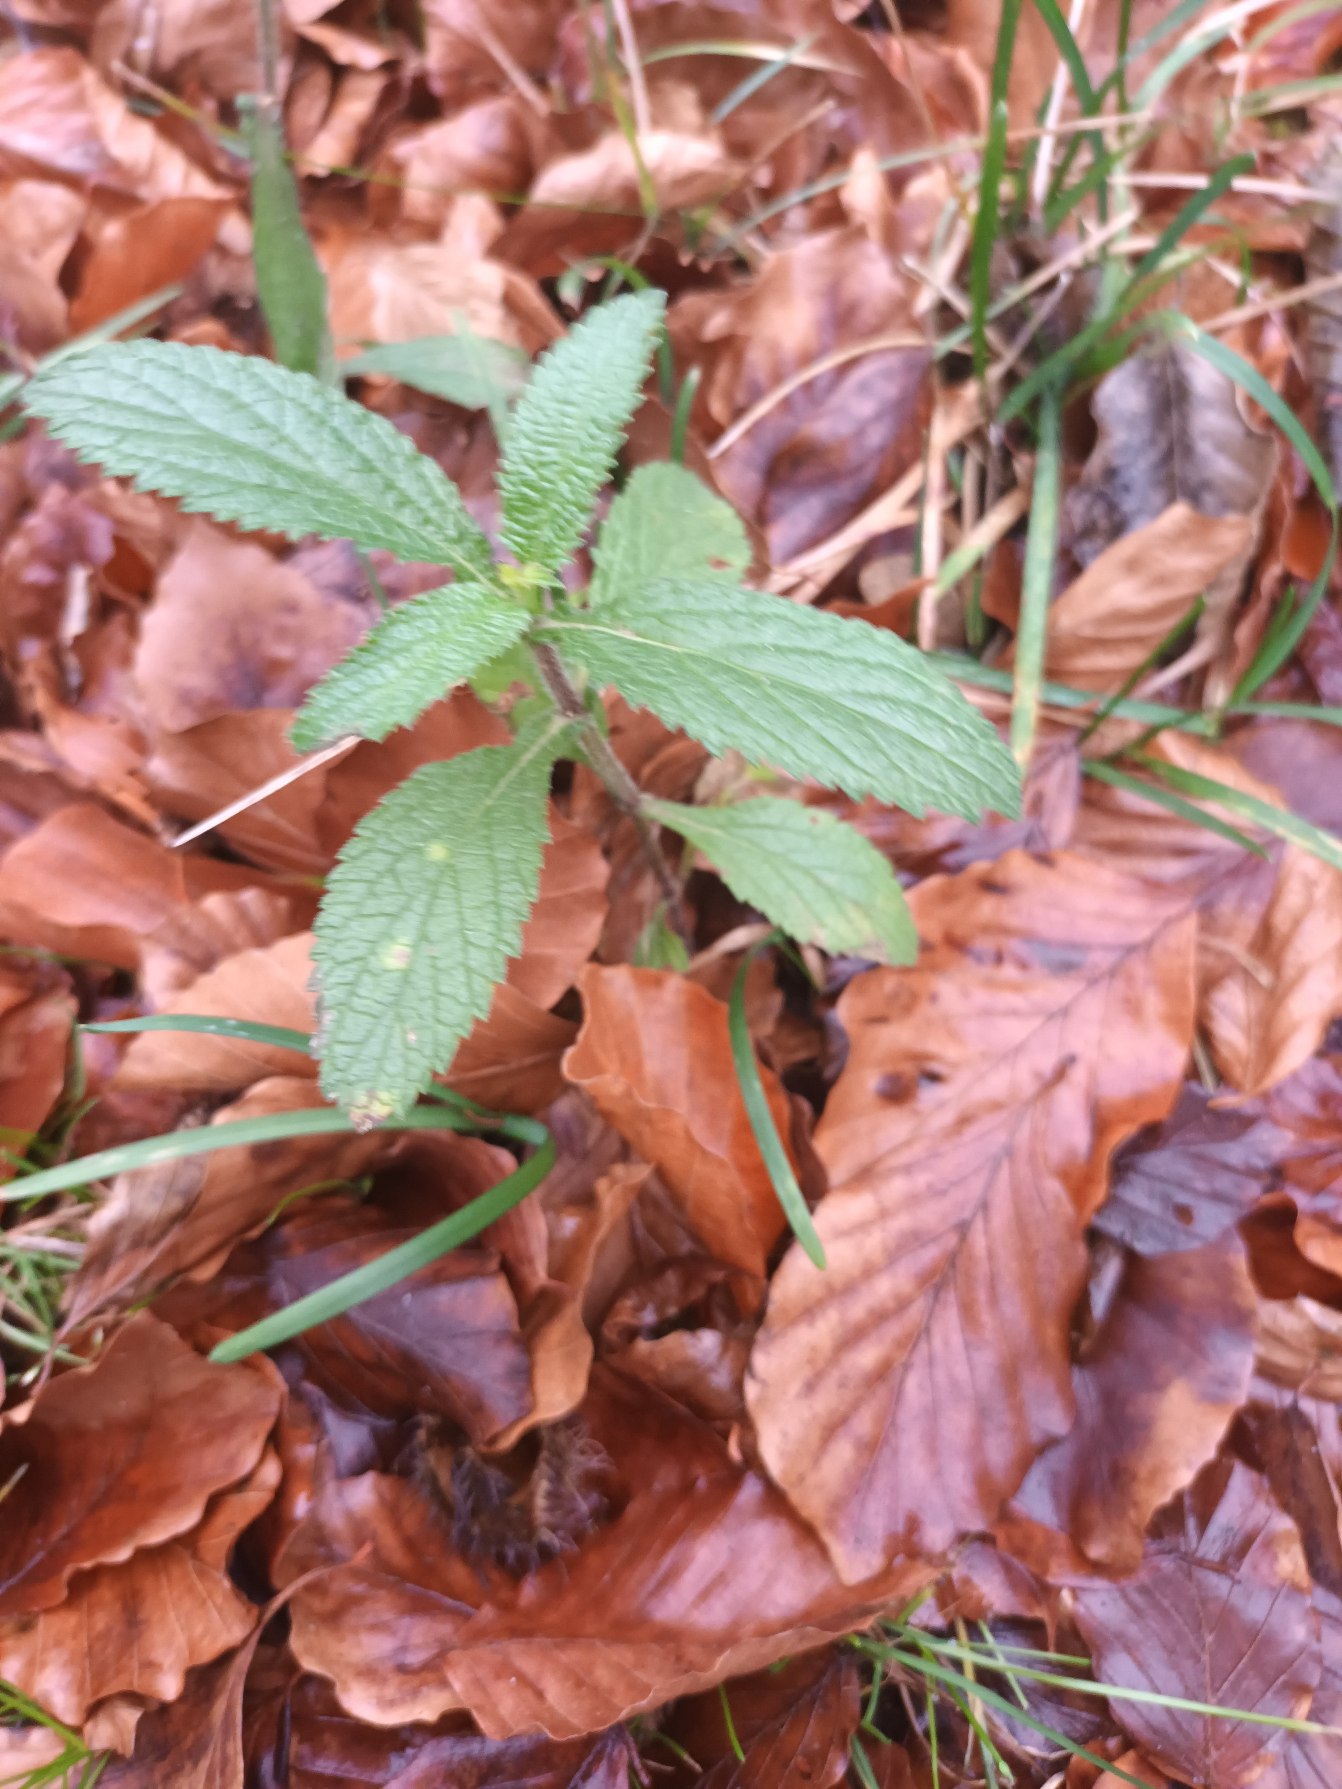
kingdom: Plantae
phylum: Tracheophyta
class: Magnoliopsida
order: Lamiales
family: Verbenaceae
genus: Verbena
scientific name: Verbena bonariensis
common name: Kæmpe-jernurt
